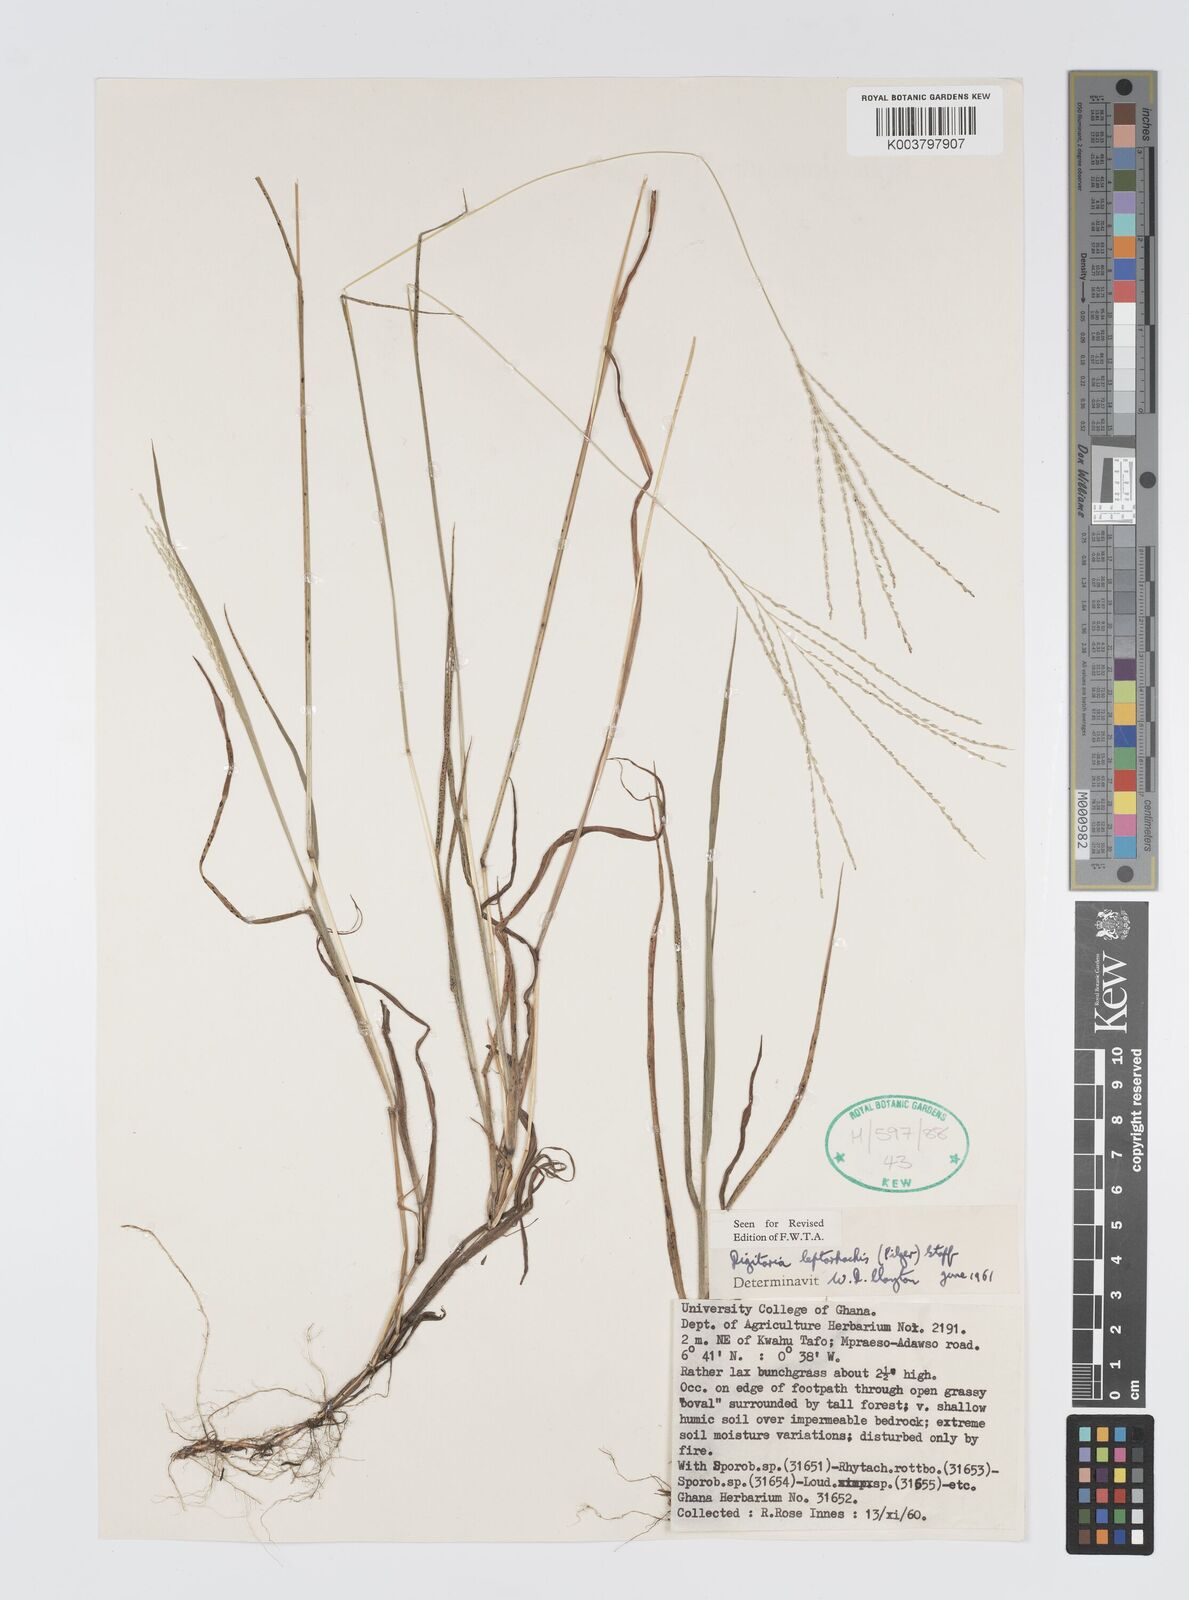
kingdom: Plantae
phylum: Tracheophyta
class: Liliopsida
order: Poales
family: Poaceae
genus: Digitaria
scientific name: Digitaria leptorhachis
